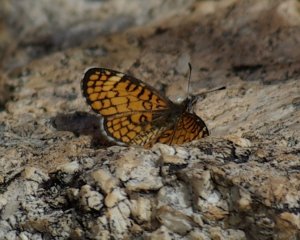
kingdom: Animalia
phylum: Arthropoda
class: Insecta
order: Lepidoptera
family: Nymphalidae
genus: Dymasia
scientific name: Dymasia dymas
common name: Tiny Checkerspot
